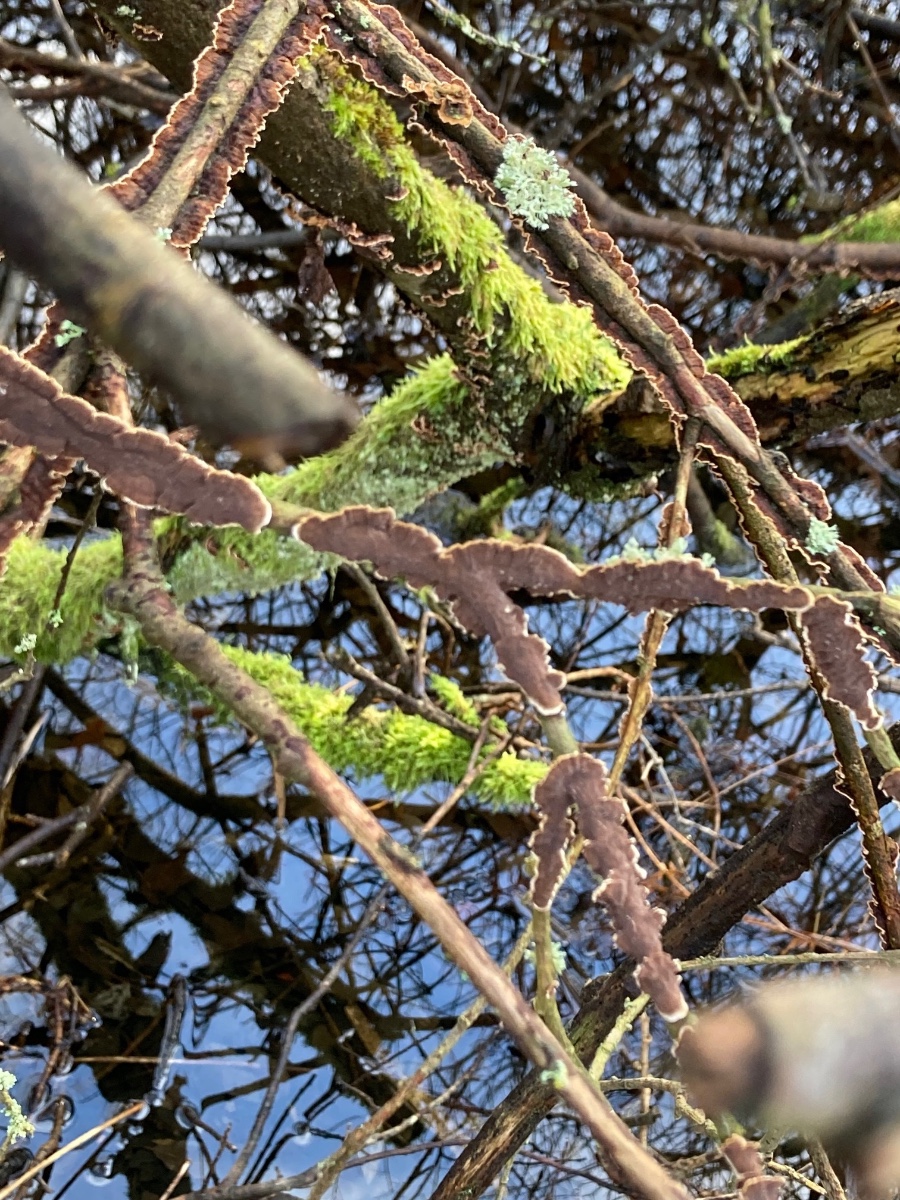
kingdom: Fungi
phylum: Basidiomycota
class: Agaricomycetes
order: Hymenochaetales
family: Hymenochaetaceae
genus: Hydnoporia
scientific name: Hydnoporia tabacina
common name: tobaksbrun ruslædersvamp
